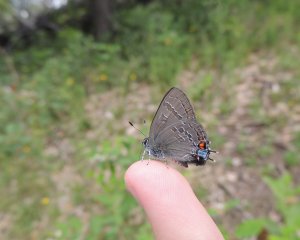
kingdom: Animalia
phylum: Arthropoda
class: Insecta
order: Lepidoptera
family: Lycaenidae
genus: Satyrium
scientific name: Satyrium calanus
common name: Banded Hairstreak
